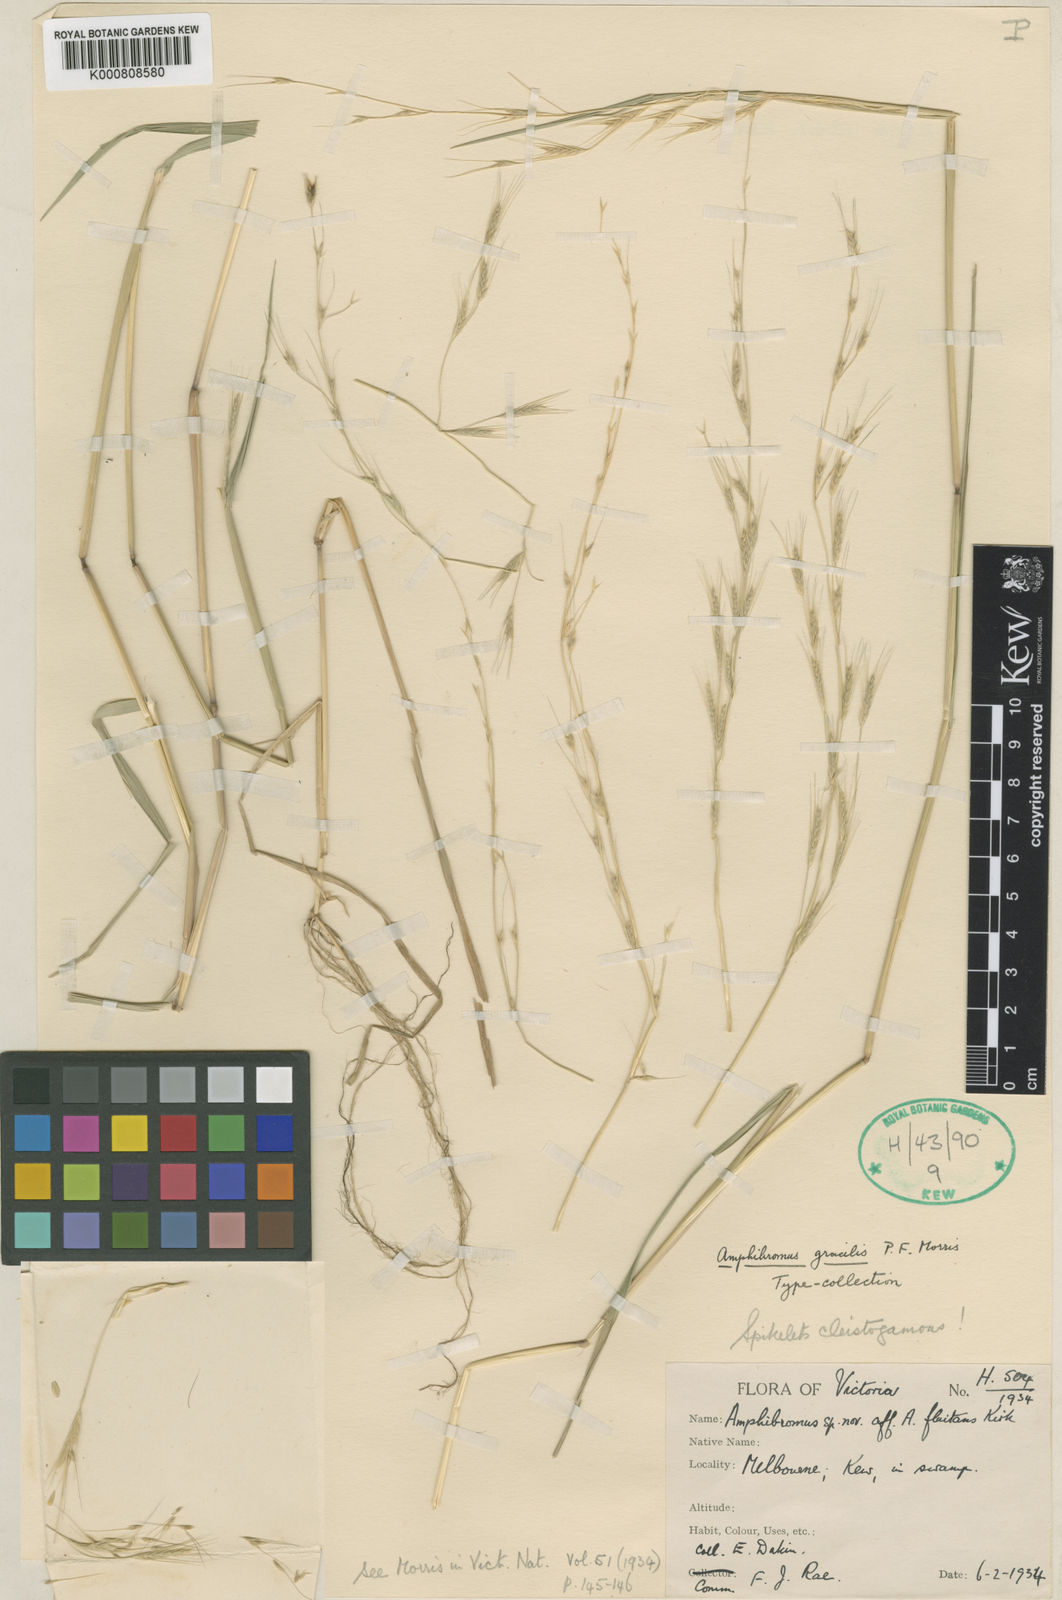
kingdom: Plantae
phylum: Tracheophyta
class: Liliopsida
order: Poales
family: Poaceae
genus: Helictotrichon
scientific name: Helictotrichon
